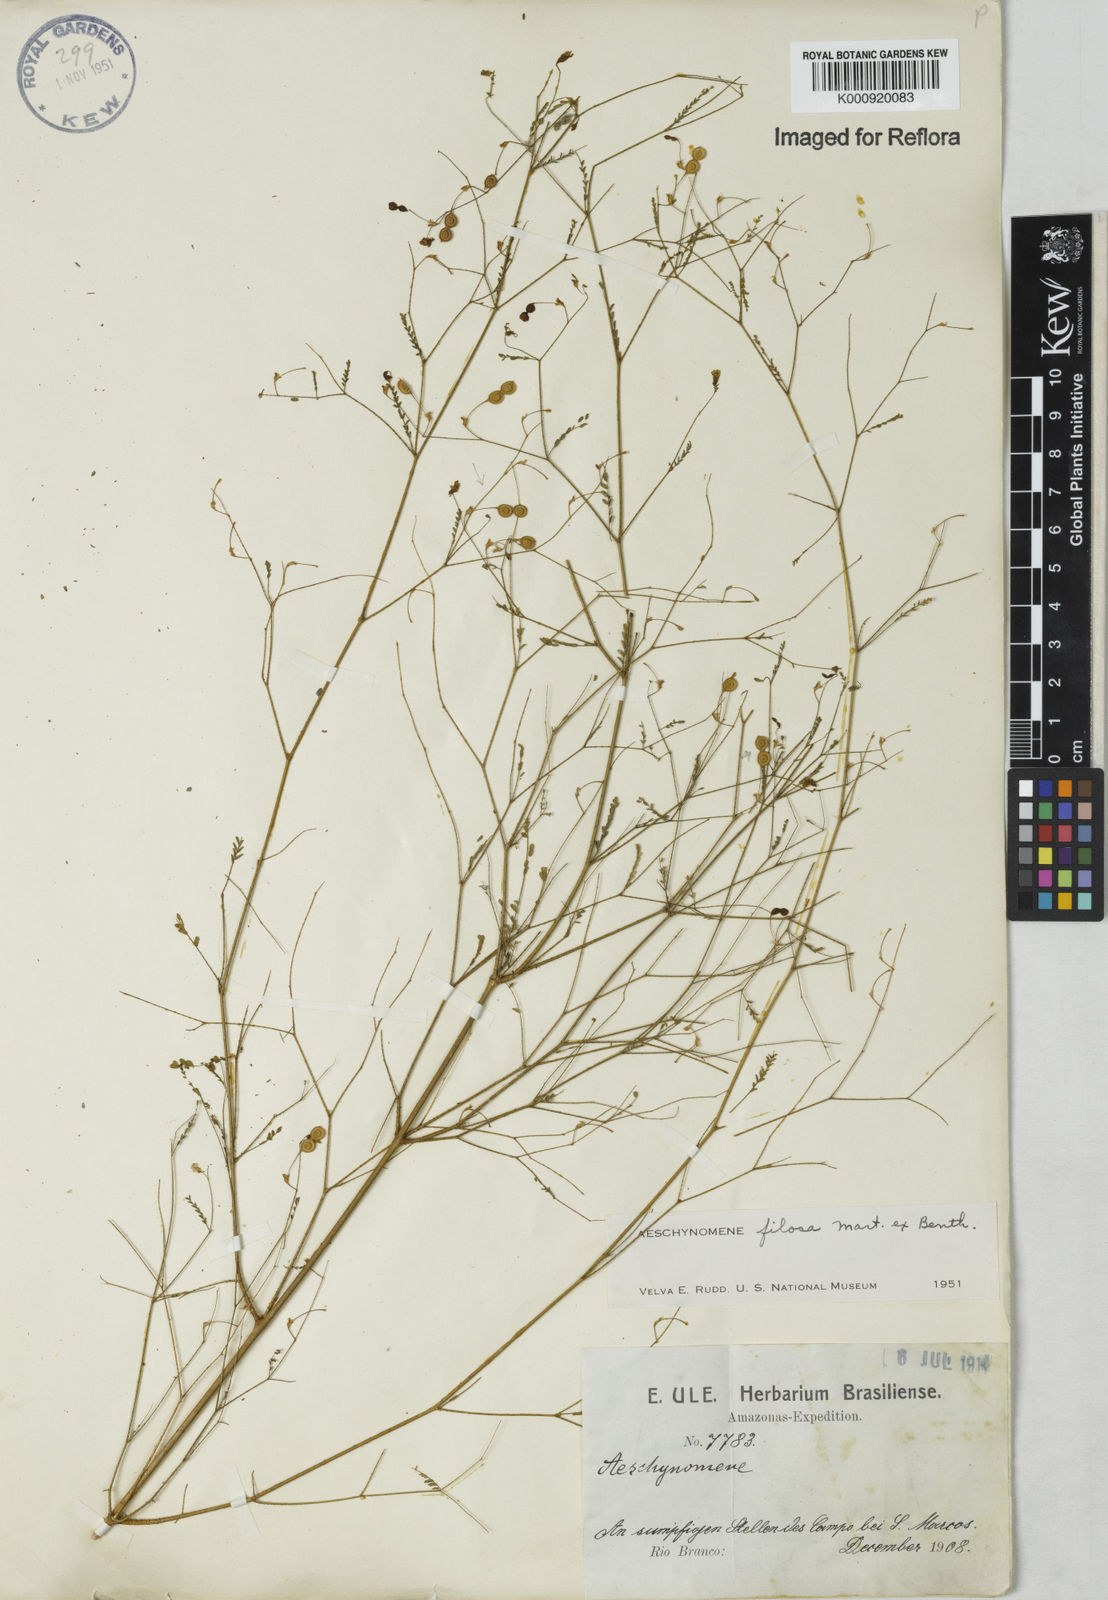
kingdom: Plantae
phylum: Tracheophyta
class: Magnoliopsida
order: Fabales
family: Fabaceae
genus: Aeschynomene
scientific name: Aeschynomene filosa
